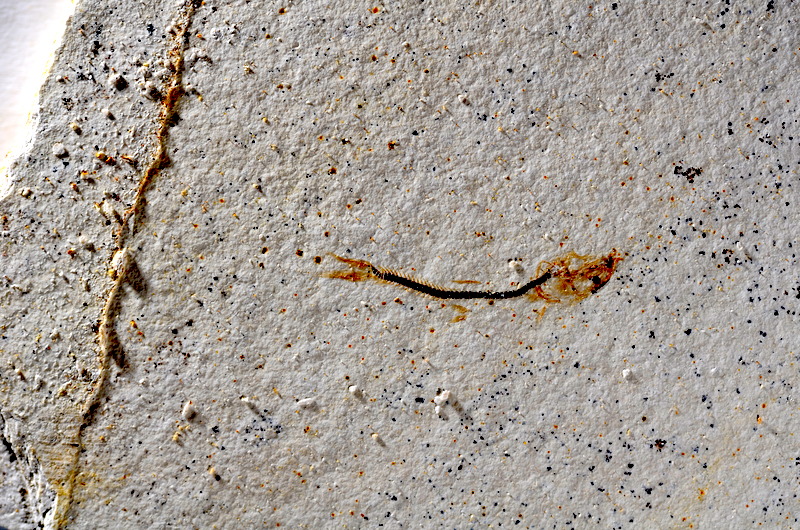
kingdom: Animalia
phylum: Chordata
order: Salmoniformes
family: Orthogonikleithridae
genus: Orthogonikleithrus
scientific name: Orthogonikleithrus hoelli
